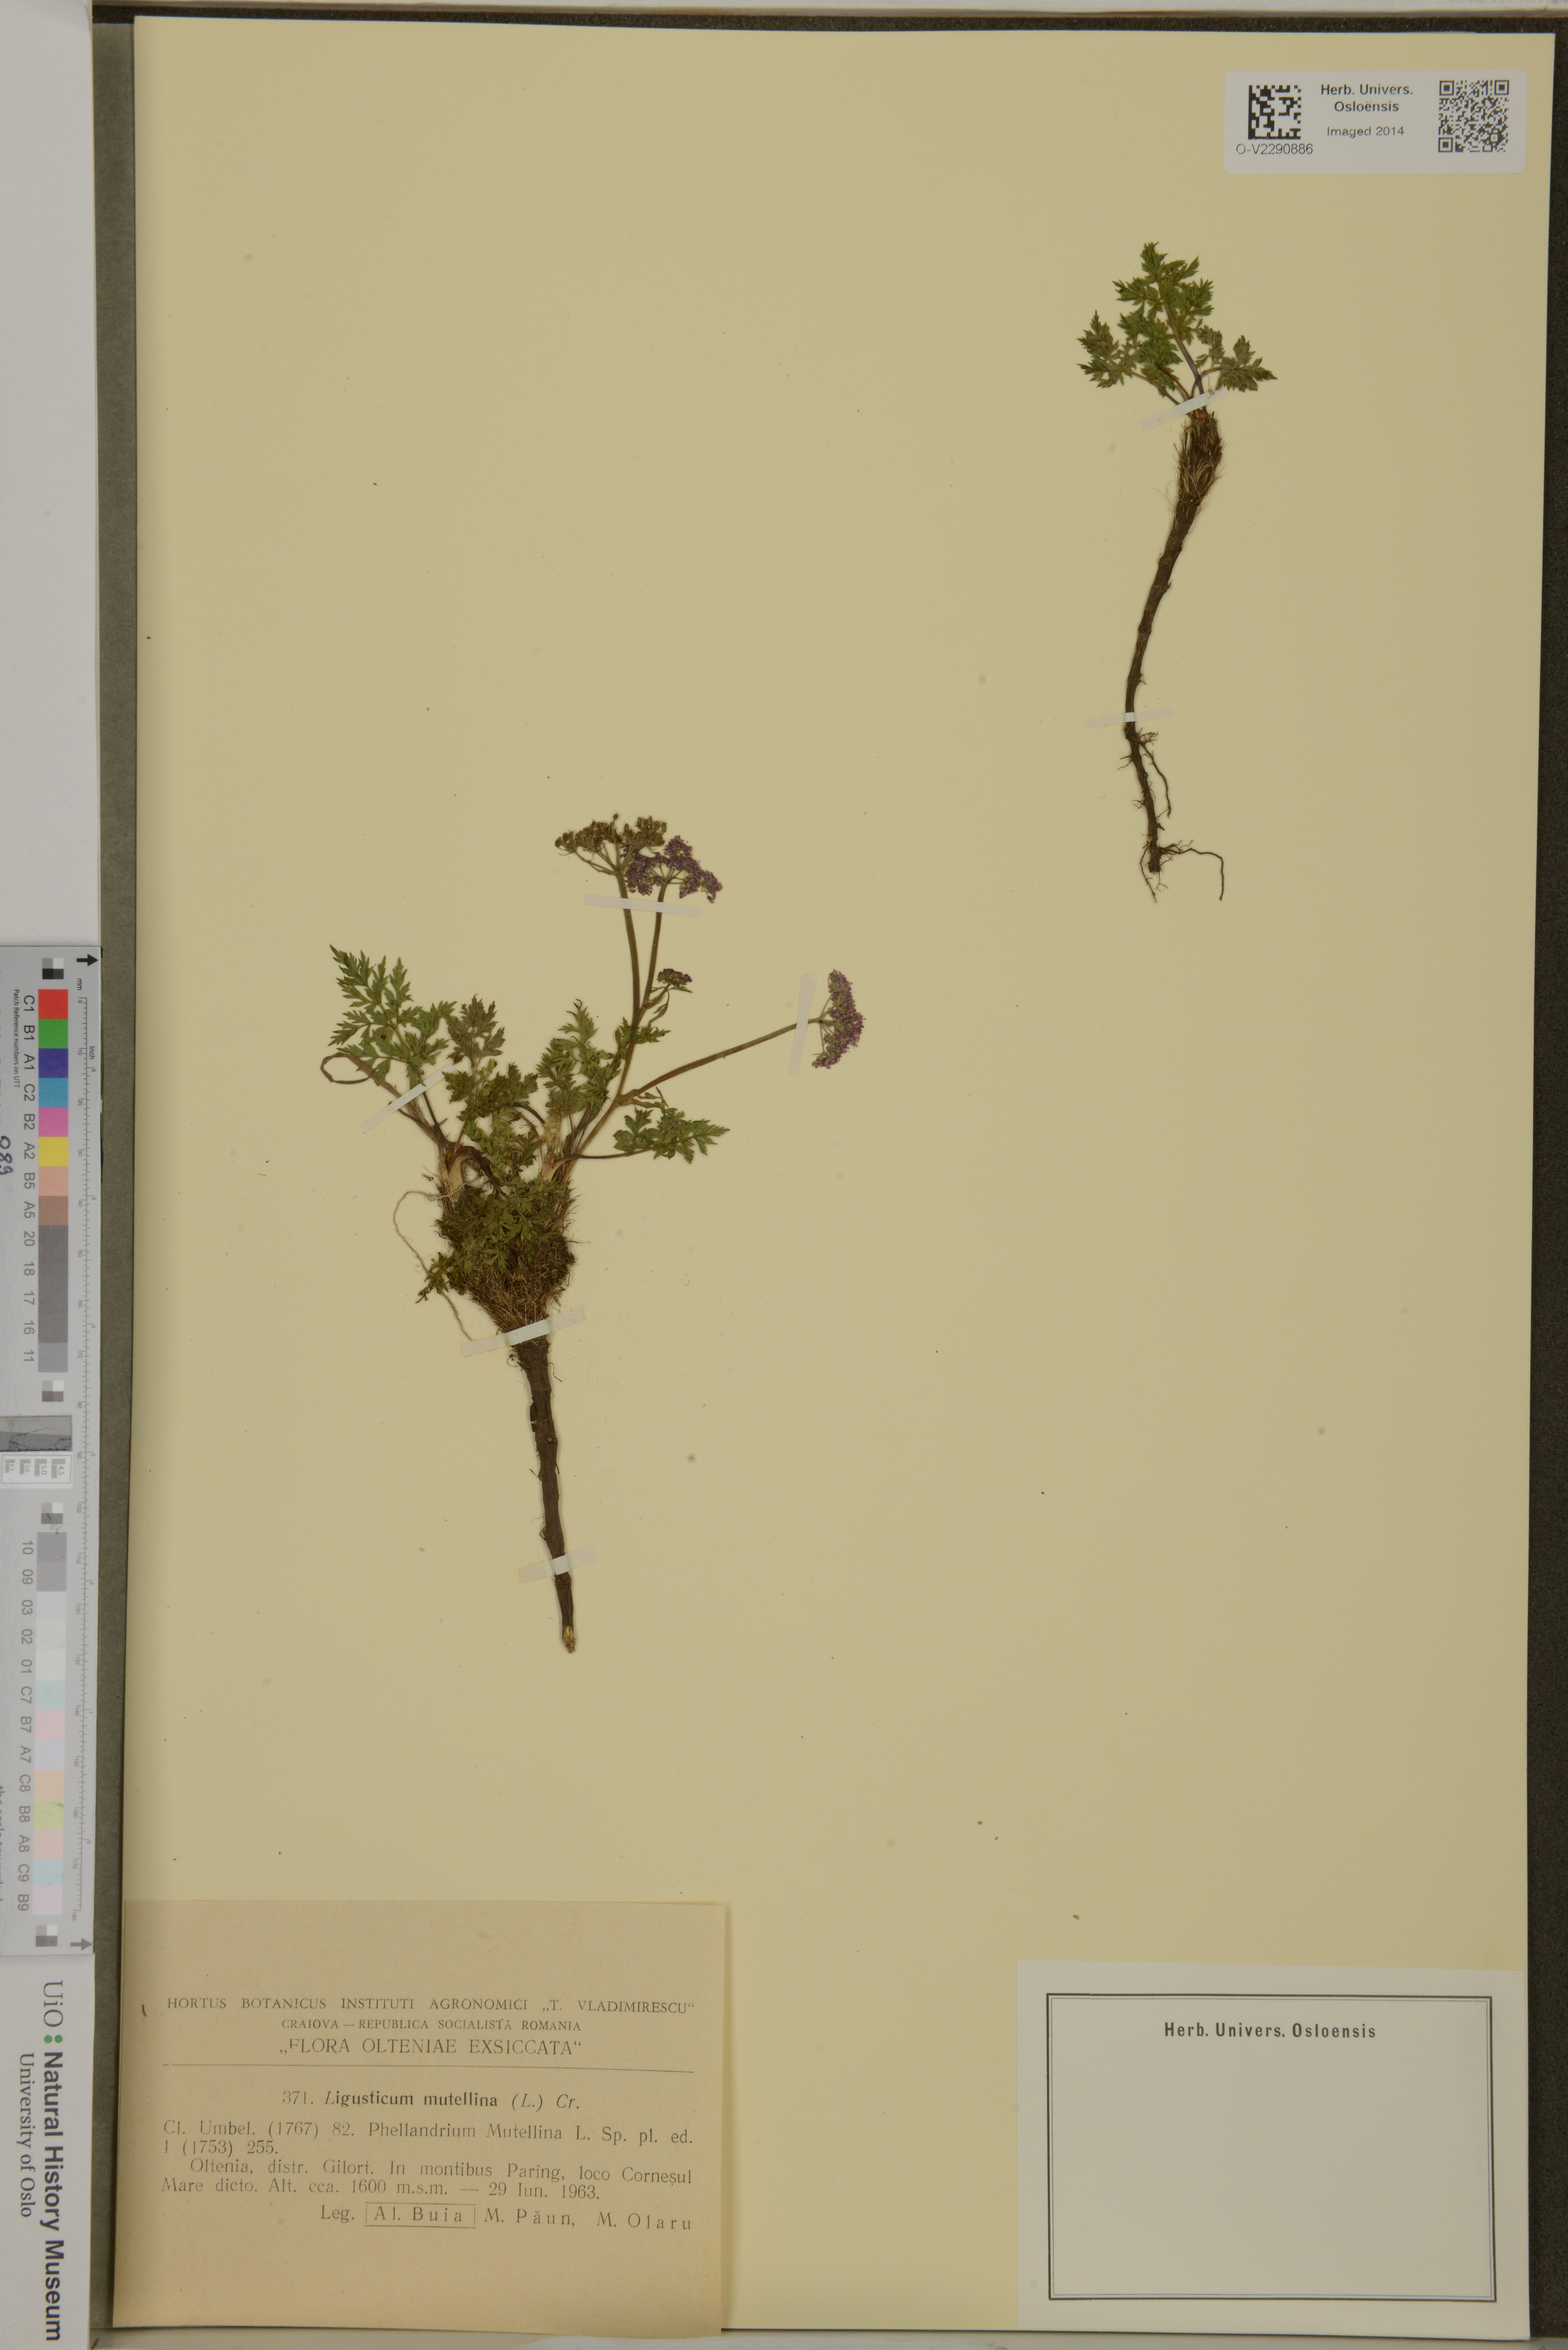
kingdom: Plantae
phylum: Tracheophyta
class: Magnoliopsida
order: Apiales
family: Apiaceae
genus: Mutellina
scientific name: Mutellina adonidifolia
